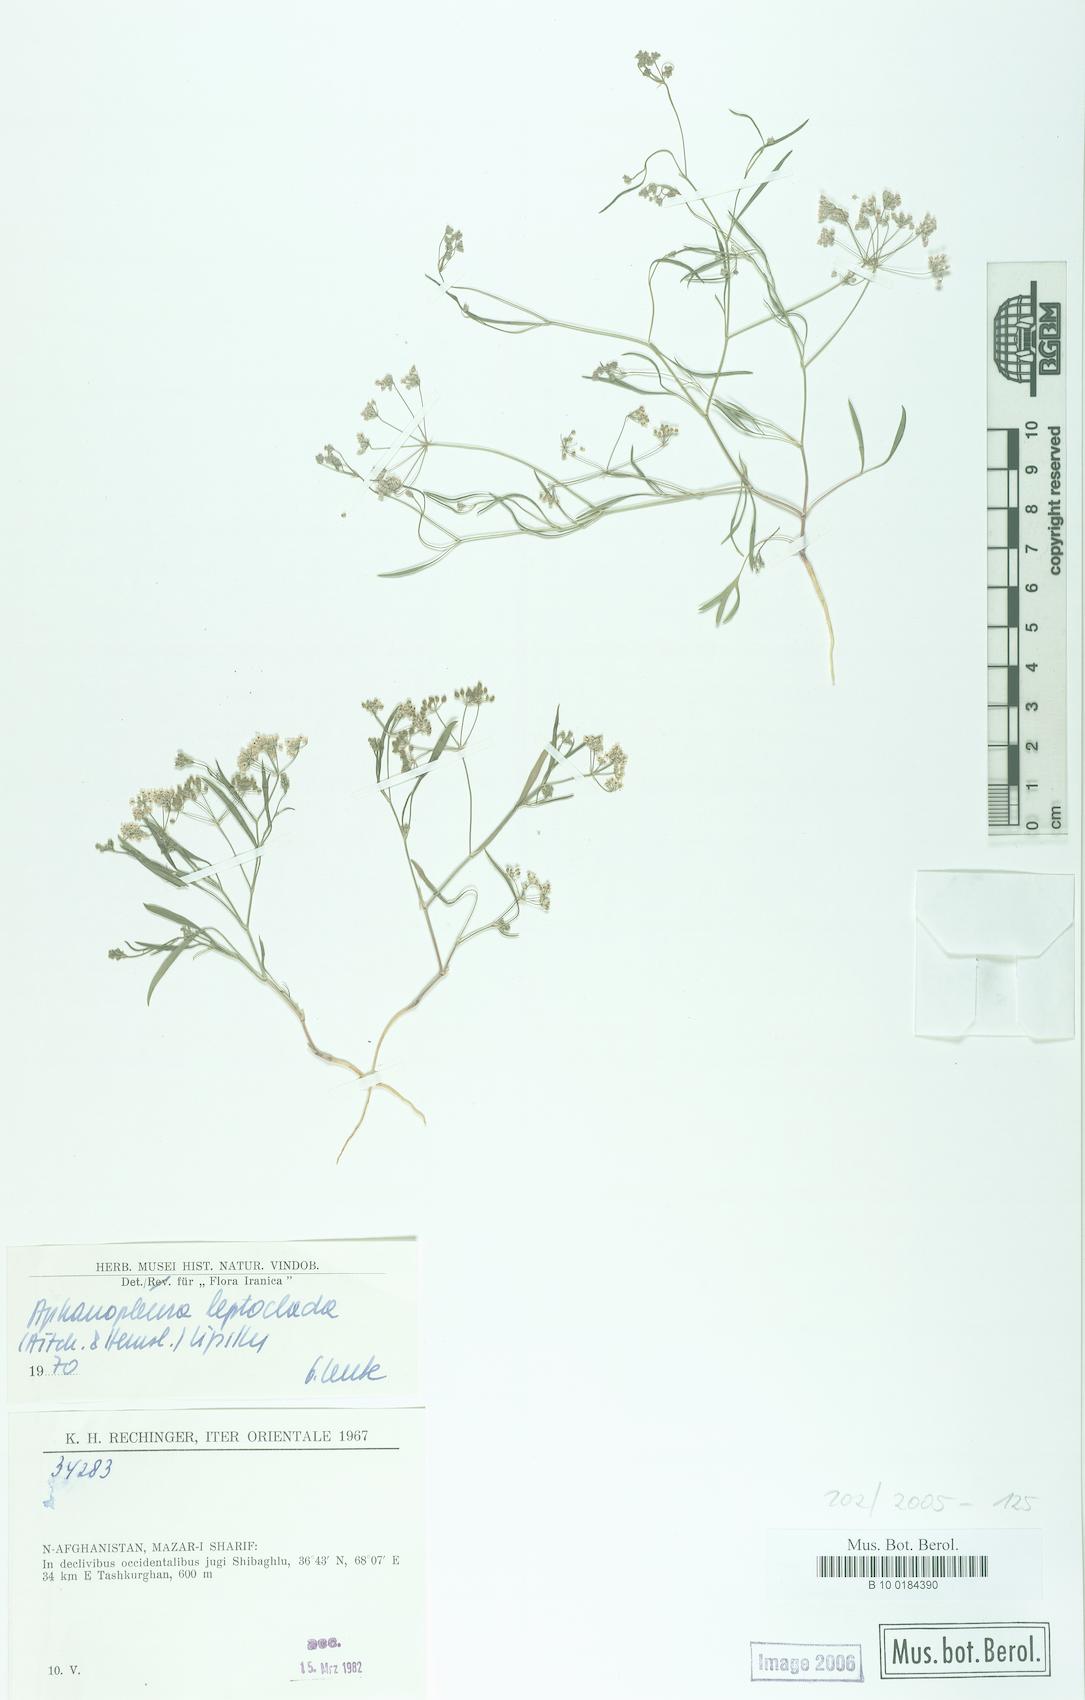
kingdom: Plantae
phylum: Tracheophyta
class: Magnoliopsida
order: Apiales
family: Apiaceae
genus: Pimpinella
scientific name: Pimpinella leptoclada
